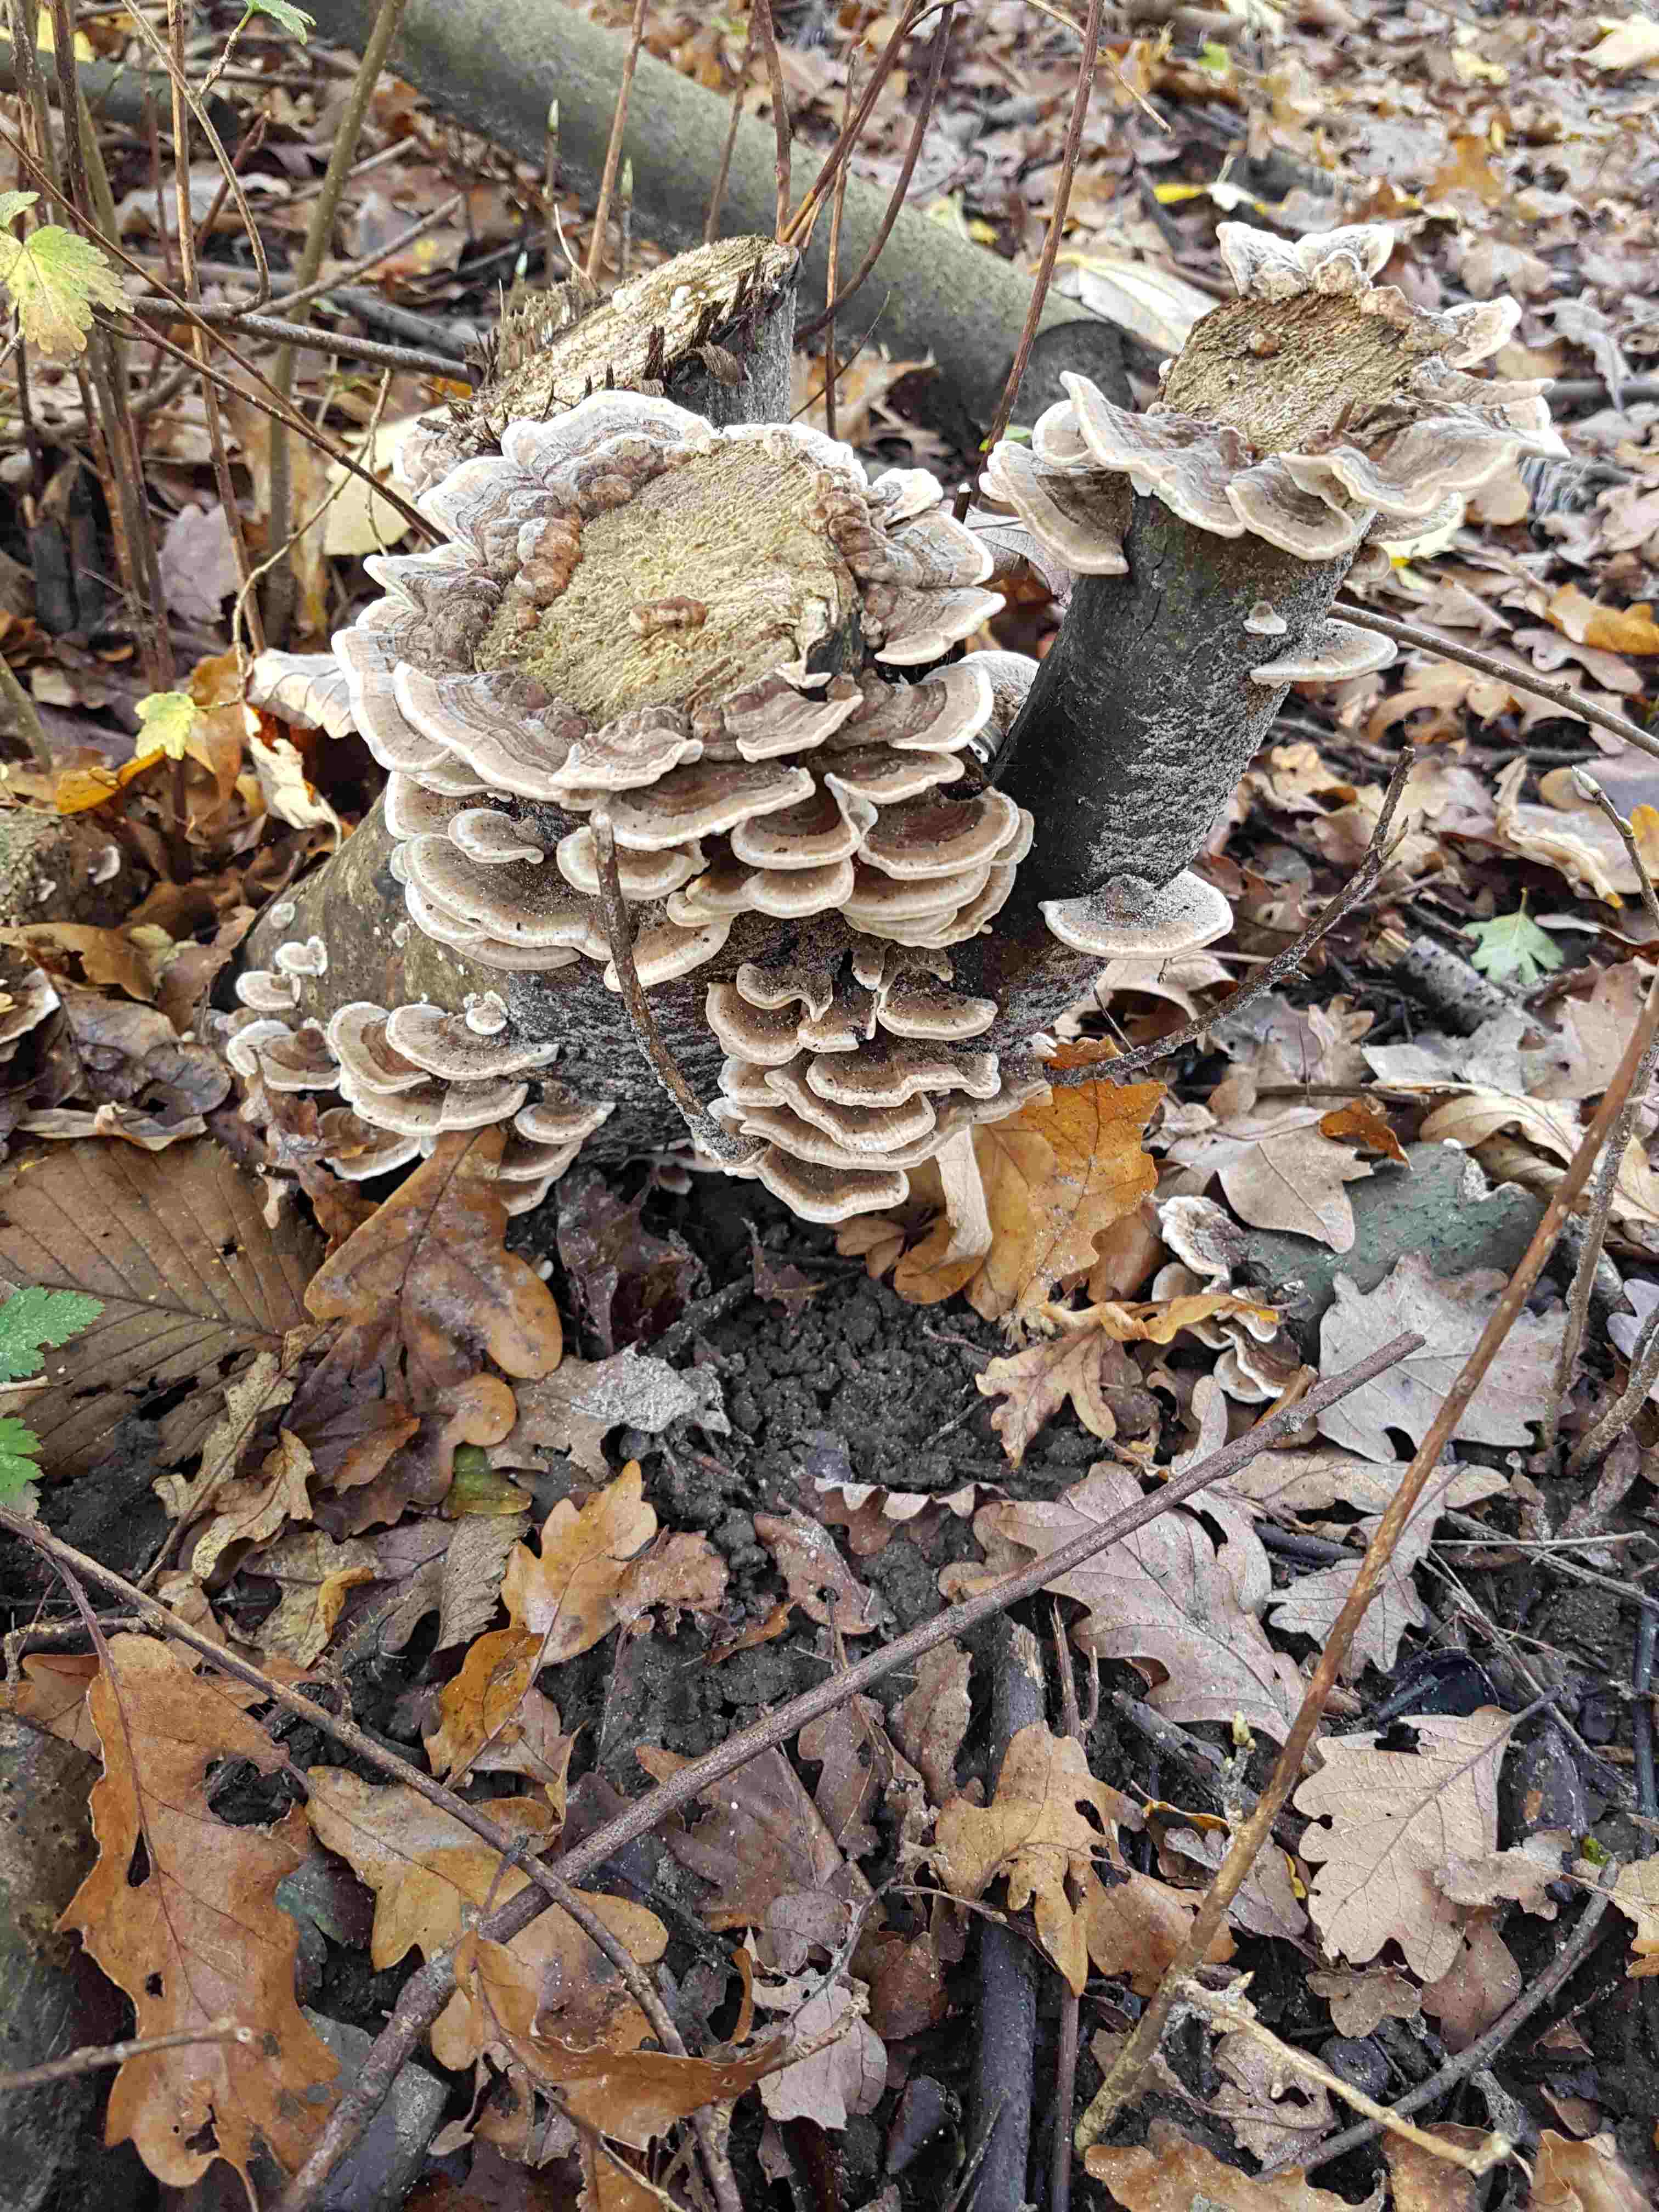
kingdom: Fungi
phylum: Basidiomycota
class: Agaricomycetes
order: Polyporales
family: Polyporaceae
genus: Trametes
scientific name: Trametes versicolor
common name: broget læderporesvamp
